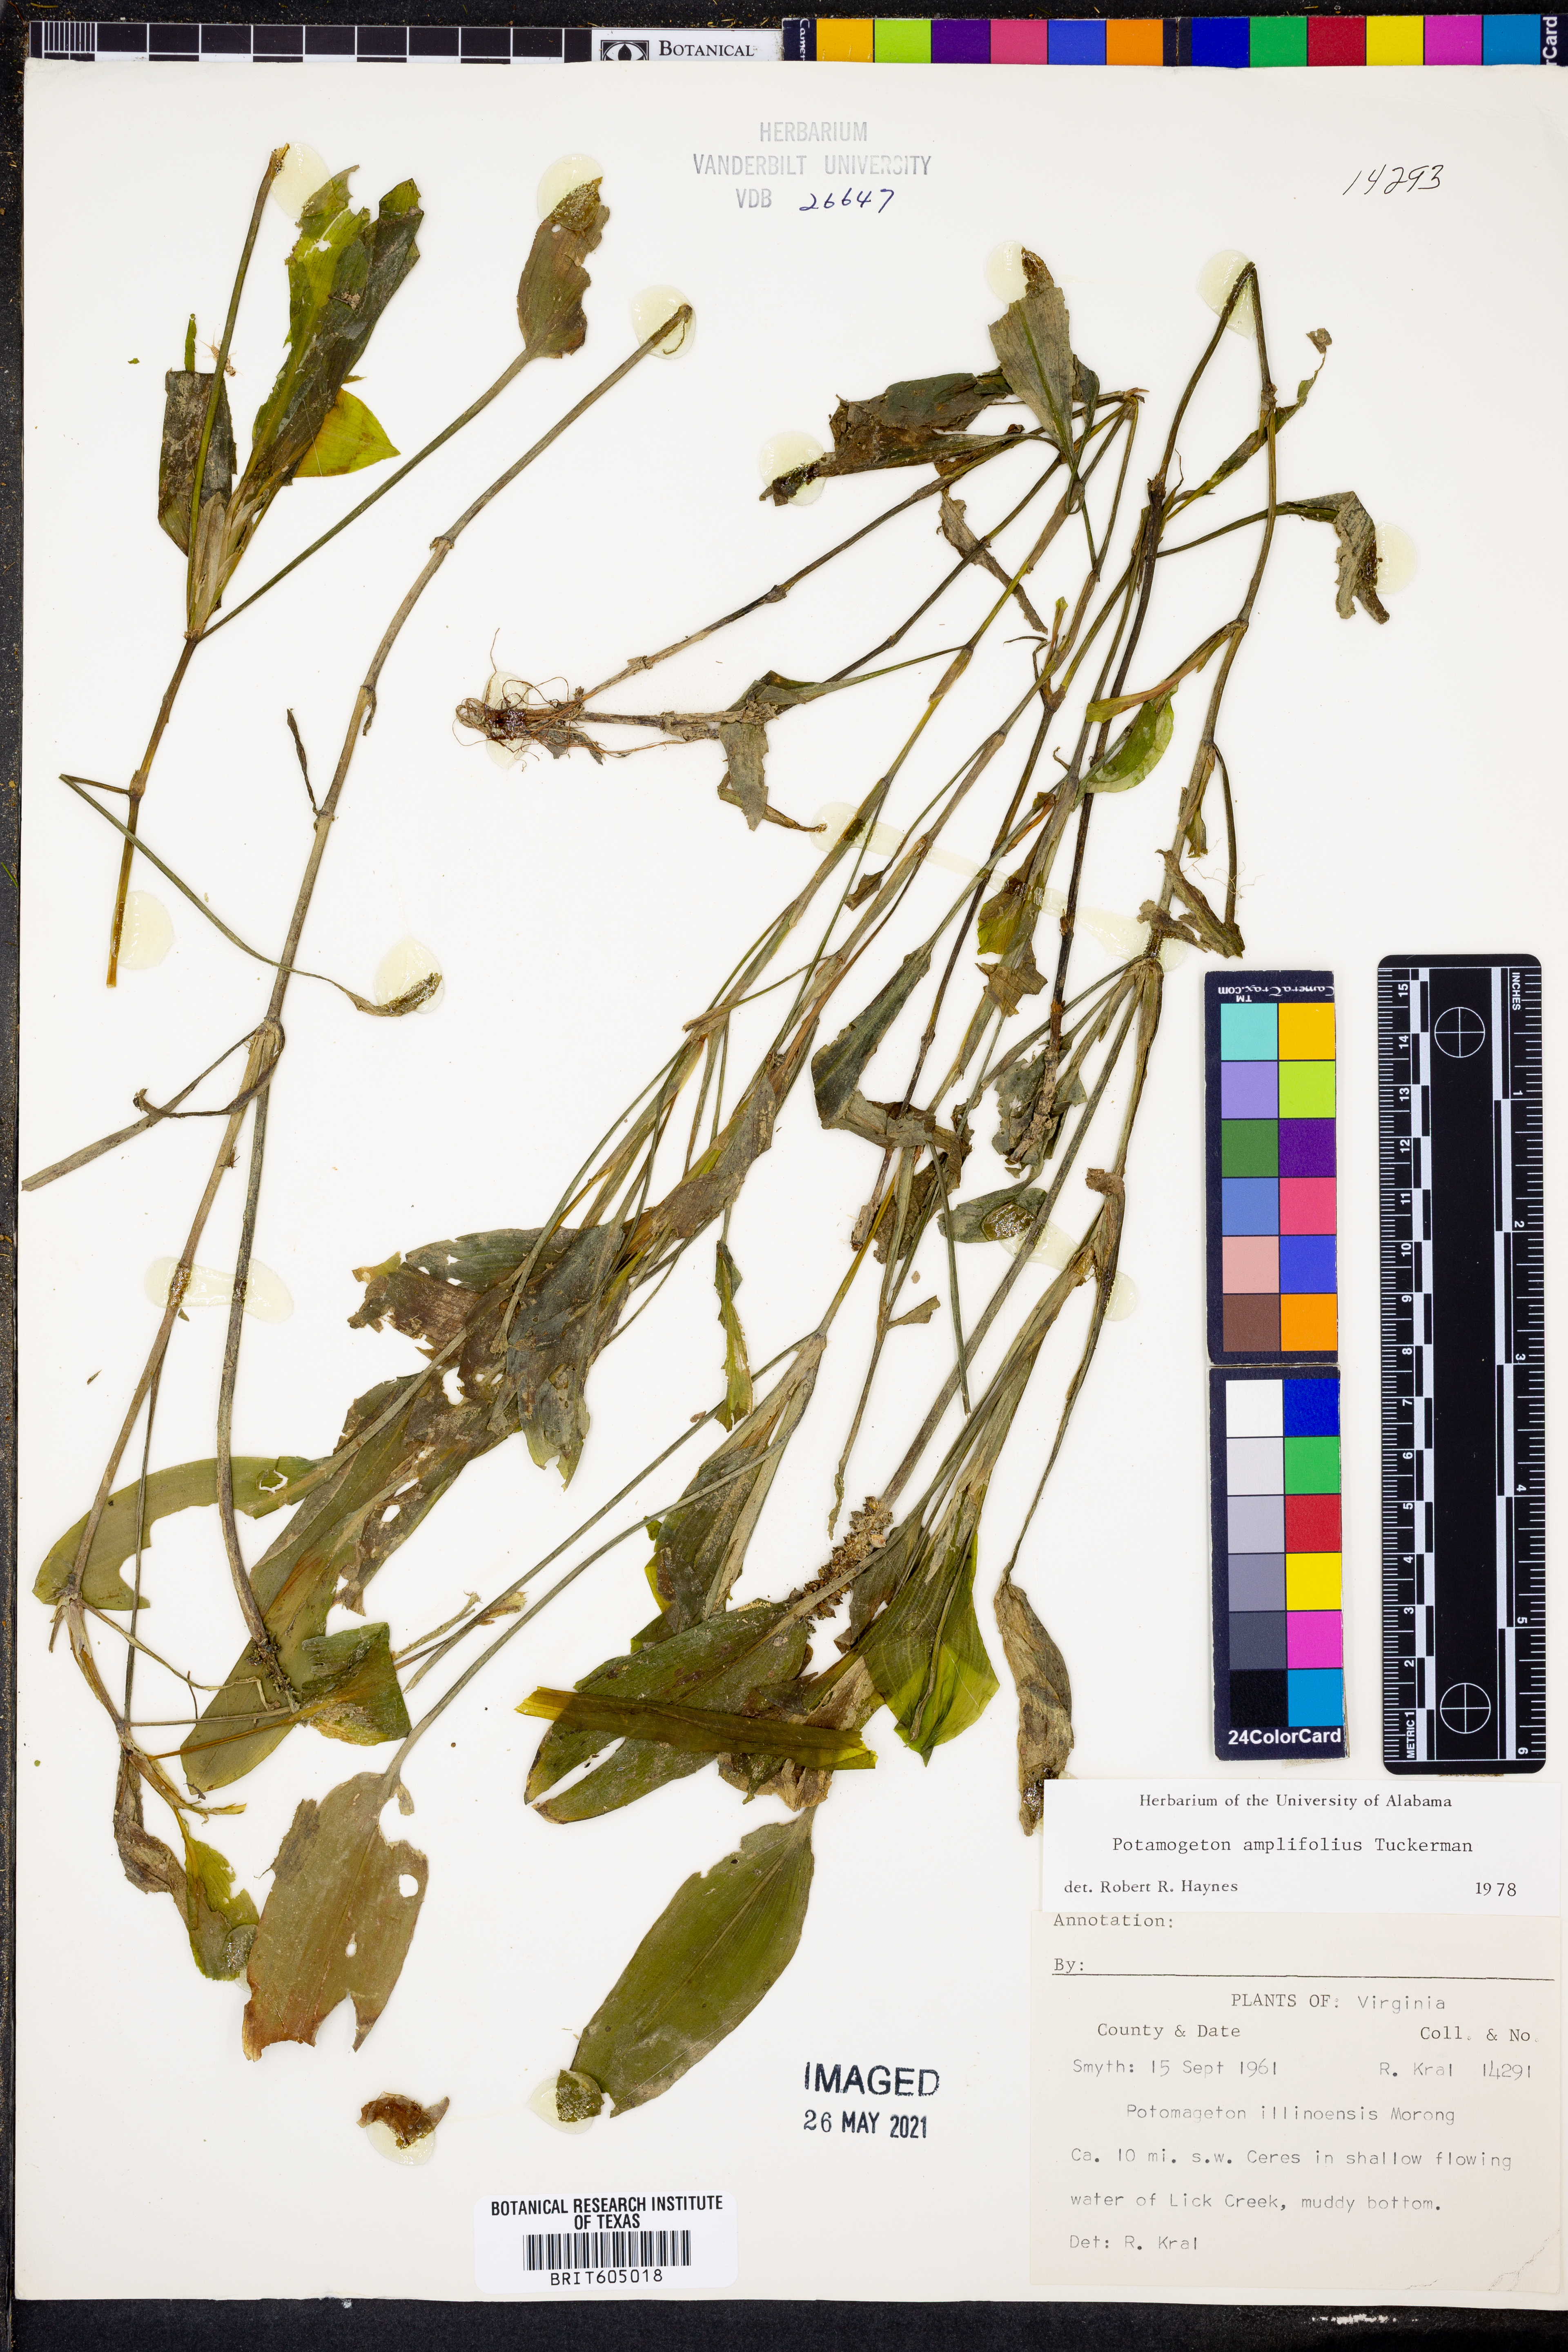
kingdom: Plantae
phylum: Tracheophyta
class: Liliopsida
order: Alismatales
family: Potamogetonaceae
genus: Potamogeton
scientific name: Potamogeton amplifolius
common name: Broad-leaved pondweed
